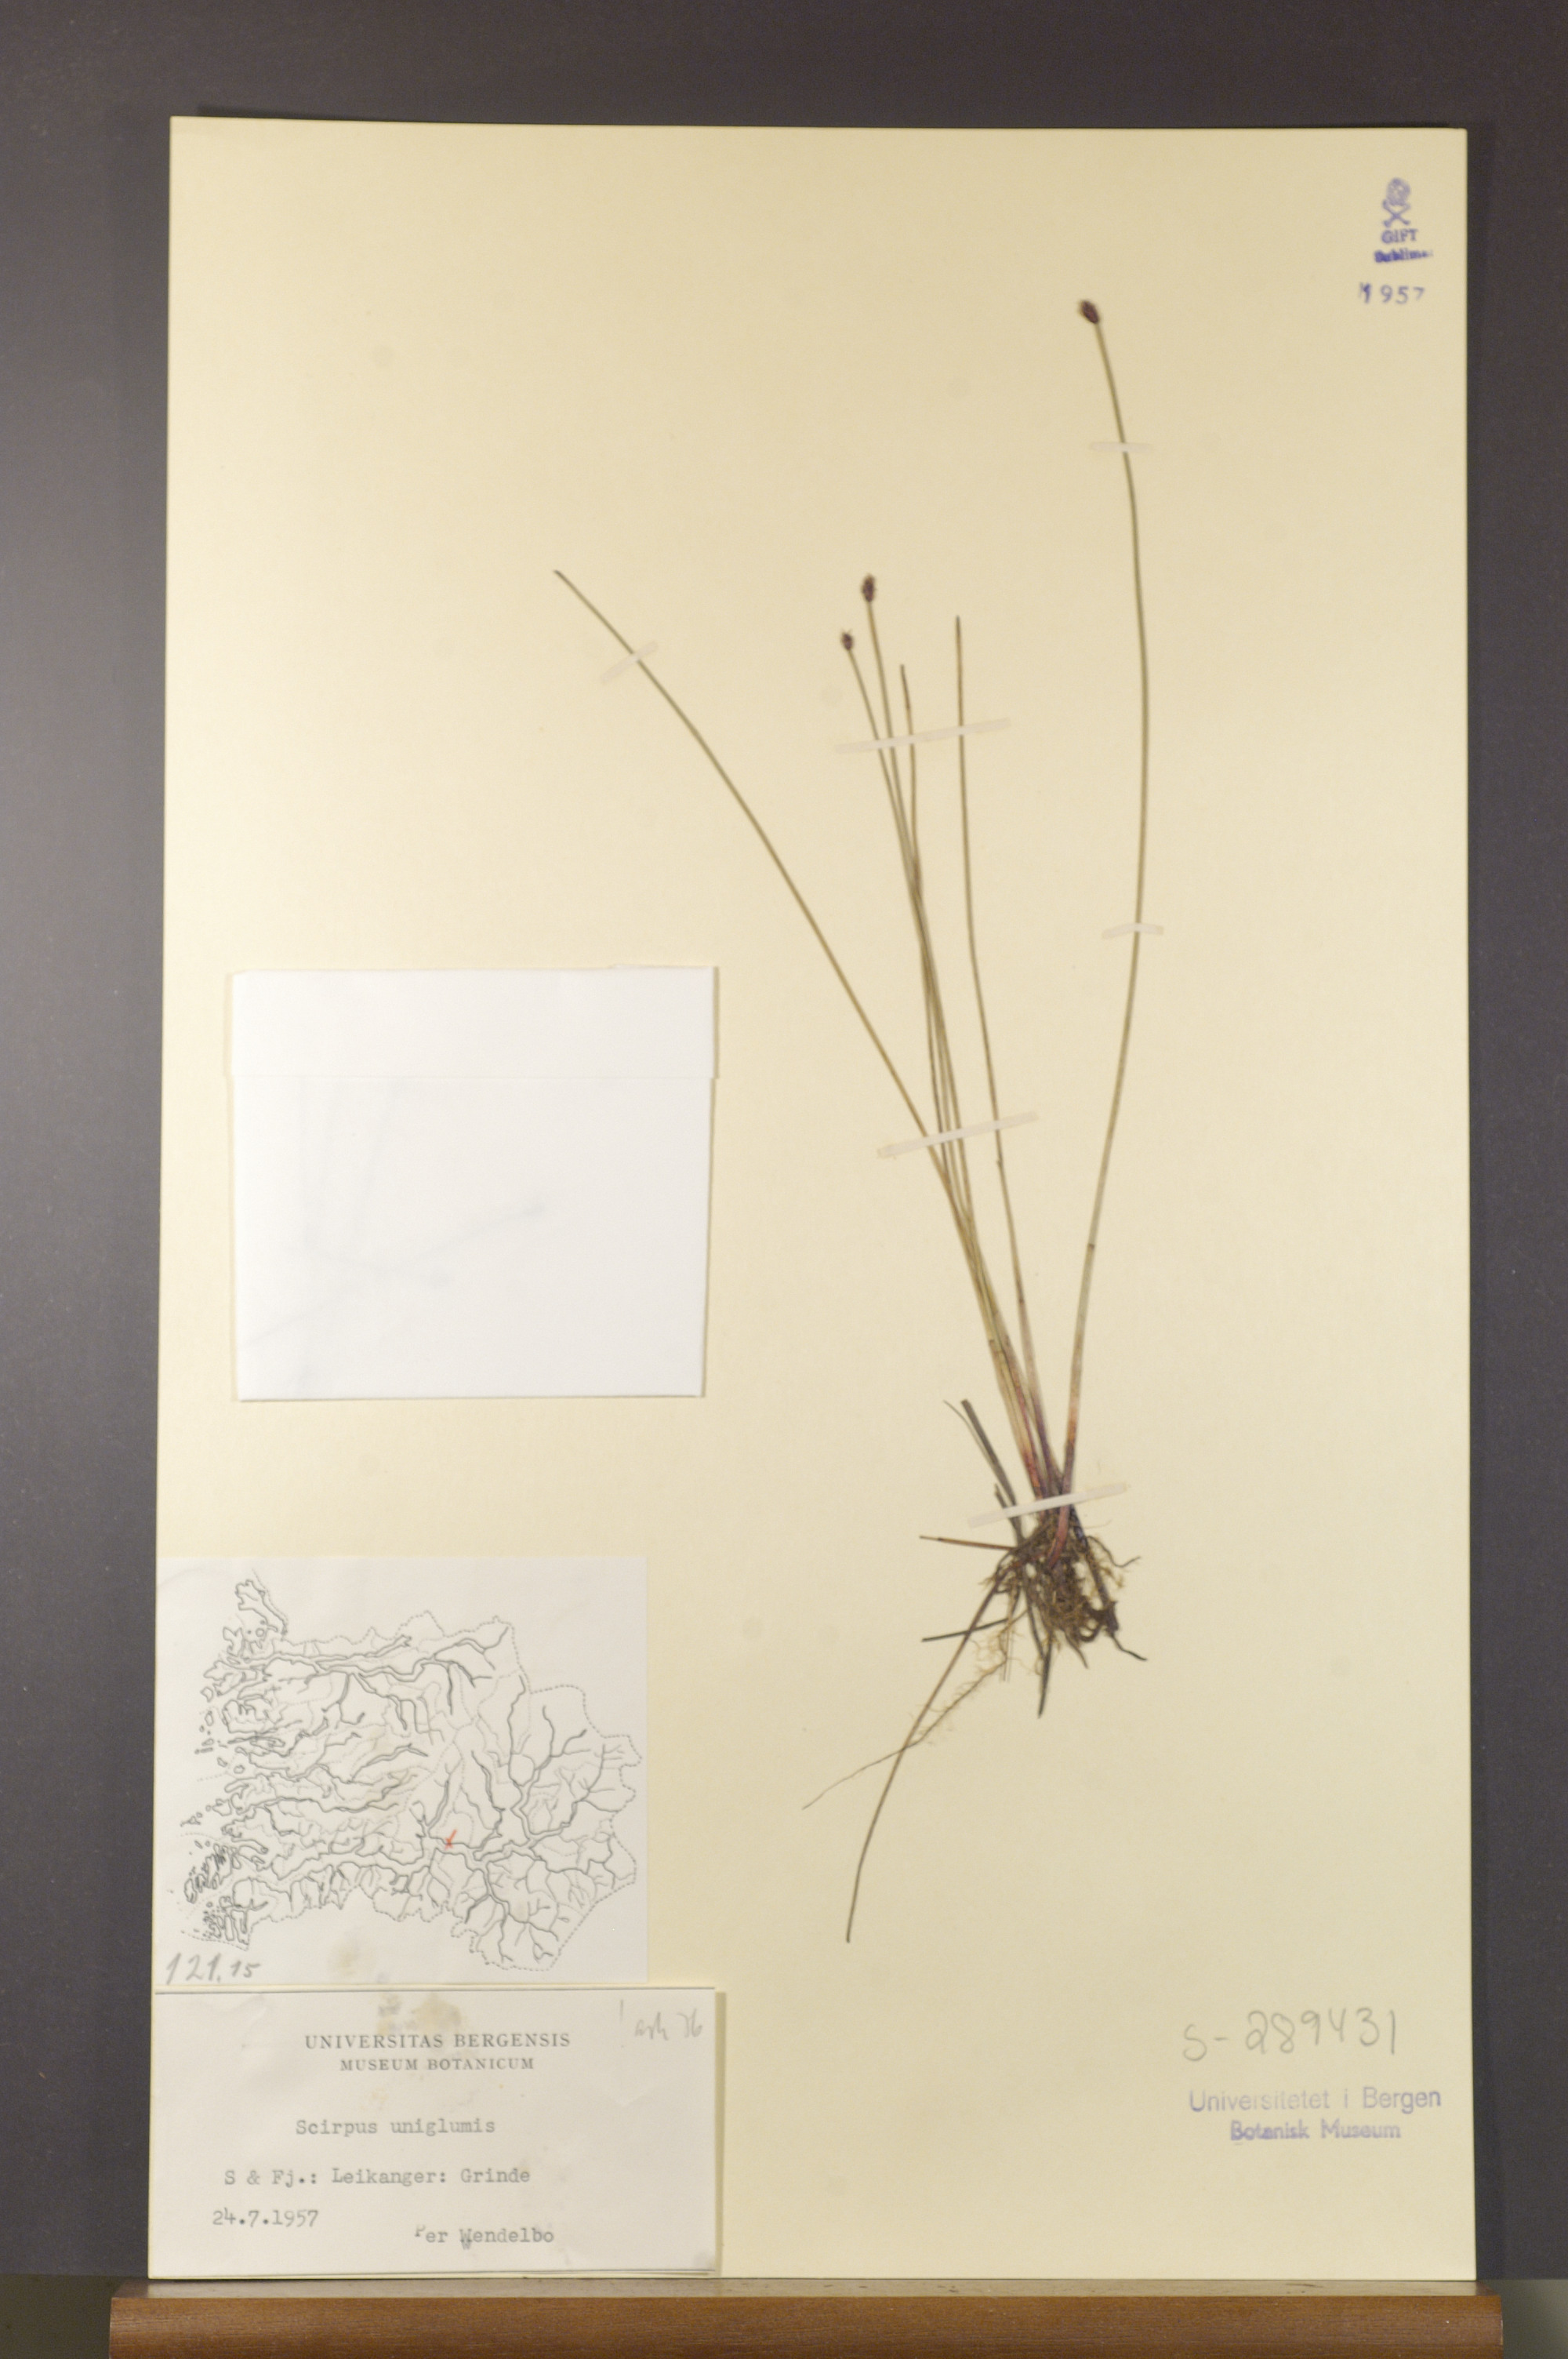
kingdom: Plantae
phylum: Tracheophyta
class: Liliopsida
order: Poales
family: Cyperaceae
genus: Eleocharis
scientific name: Eleocharis uniglumis
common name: Slender spike-rush
